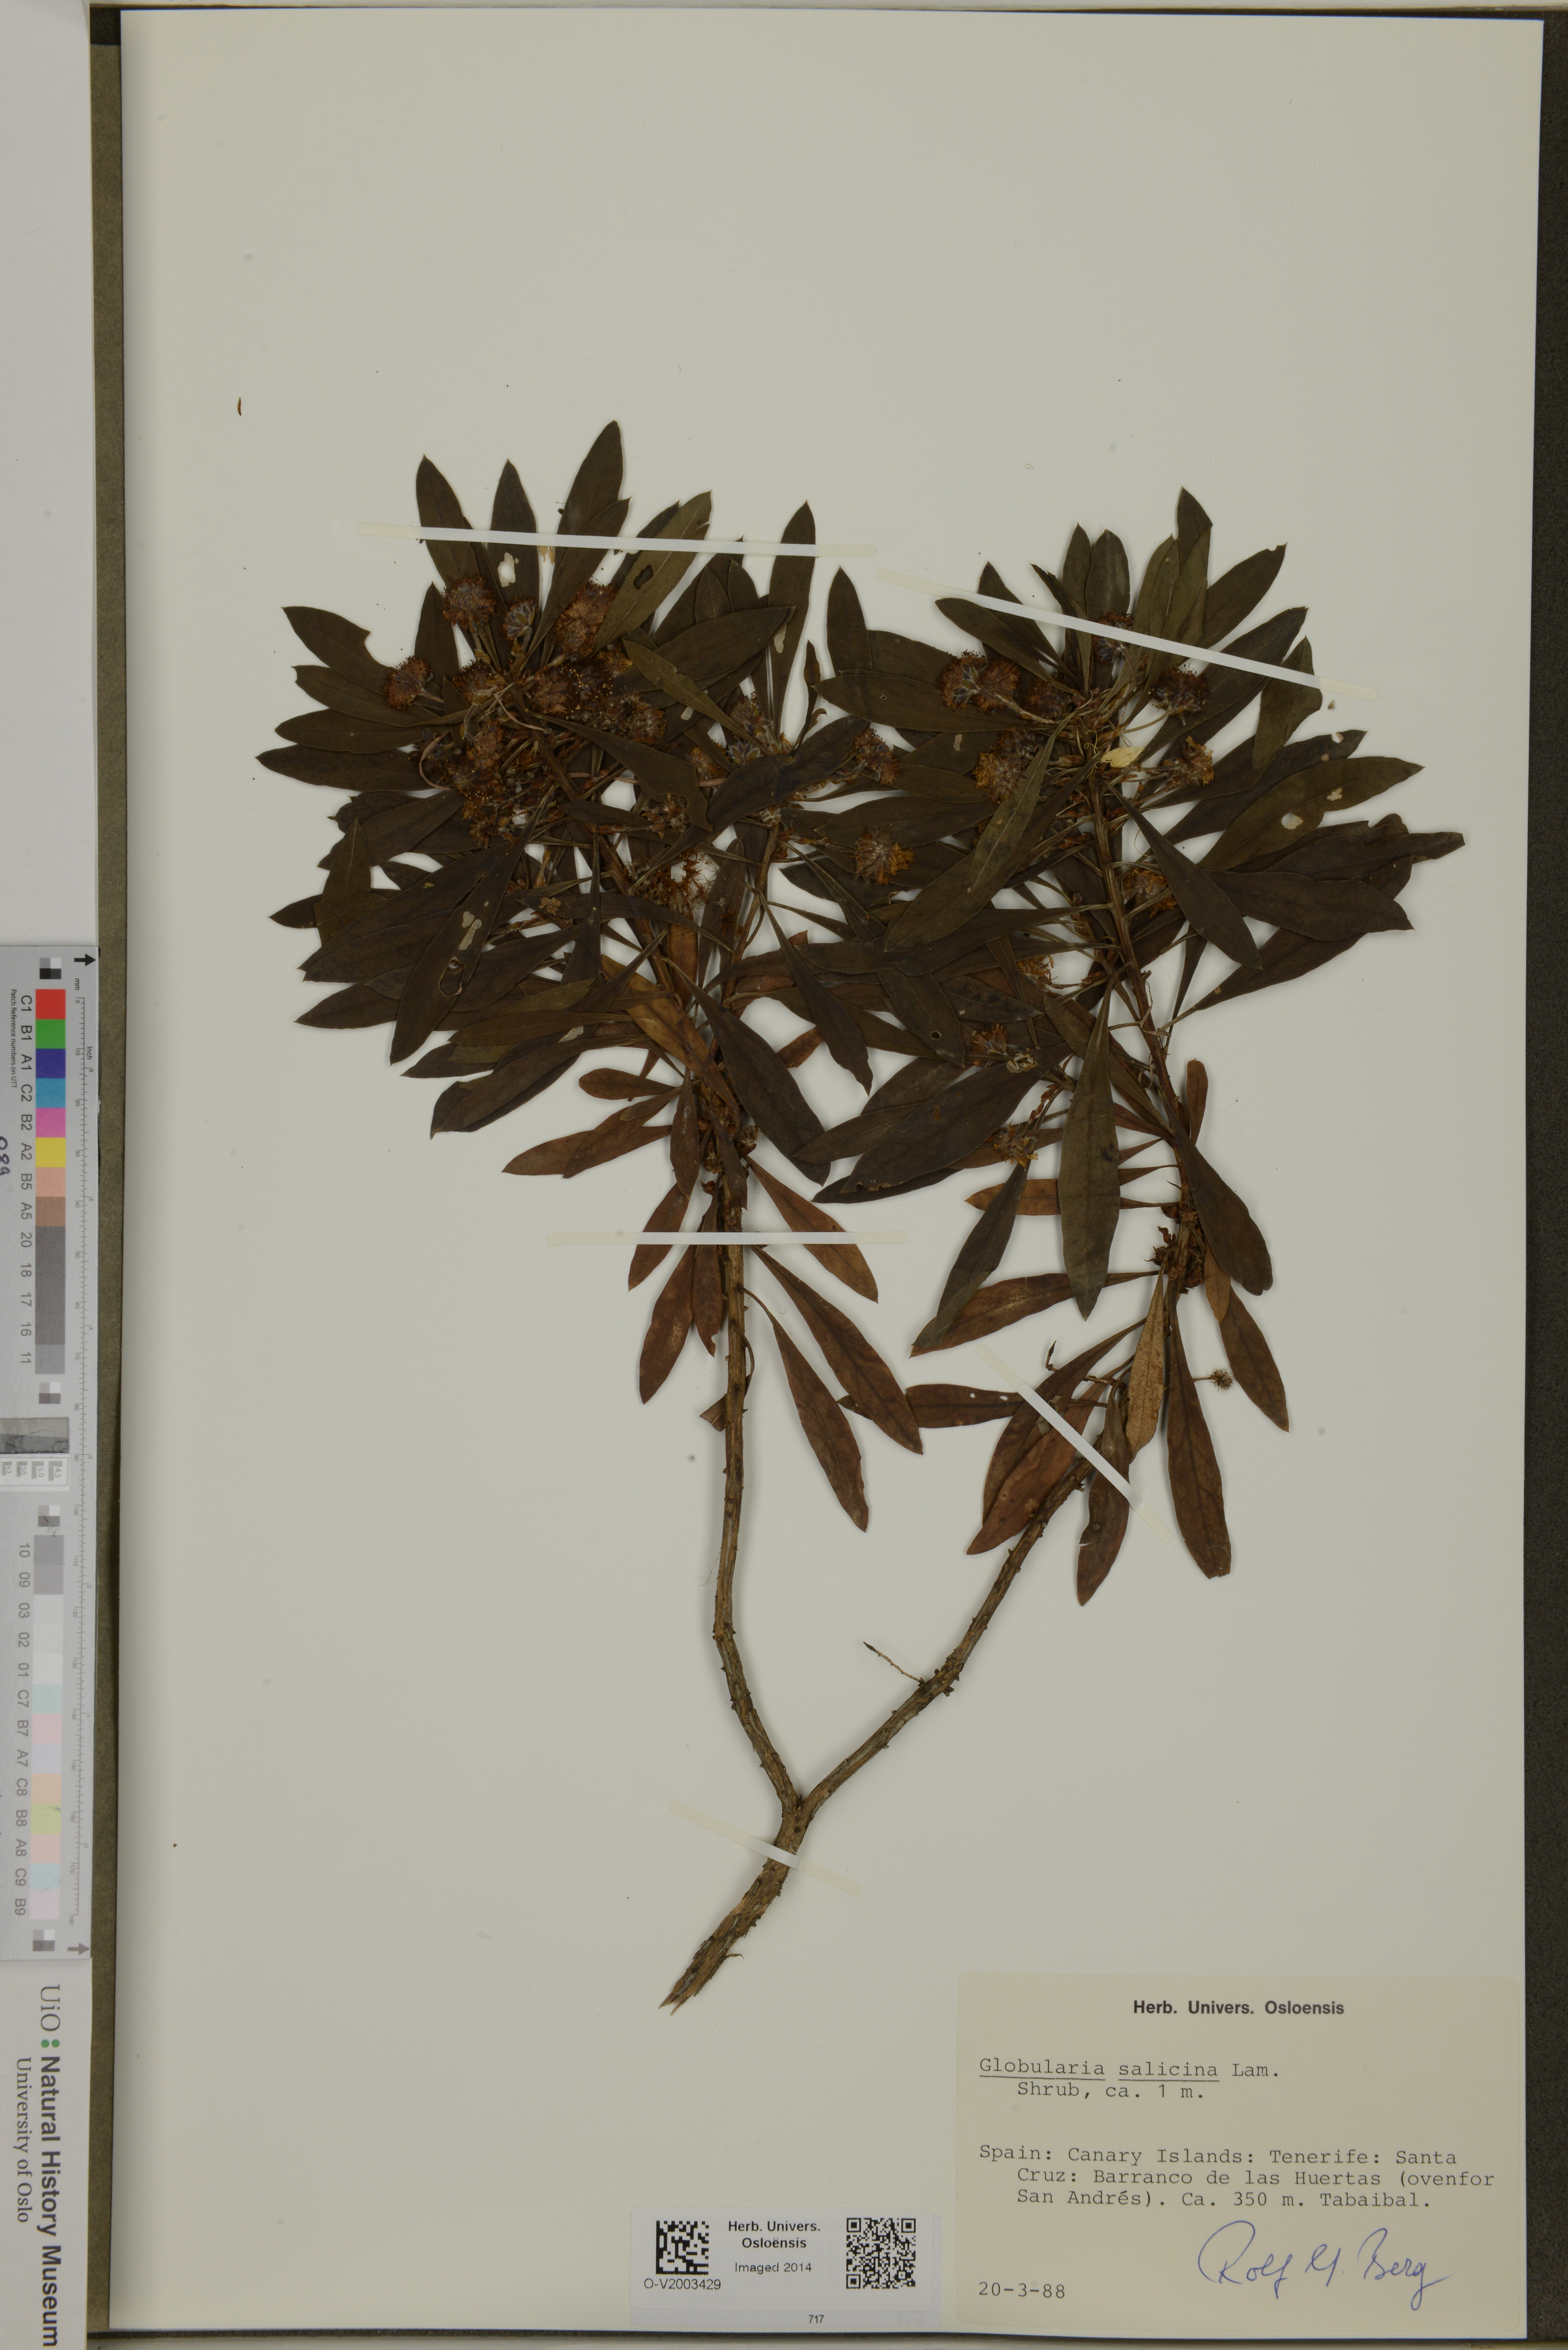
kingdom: Plantae
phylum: Tracheophyta
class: Magnoliopsida
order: Lamiales
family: Plantaginaceae
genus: Globularia
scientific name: Globularia salicina
